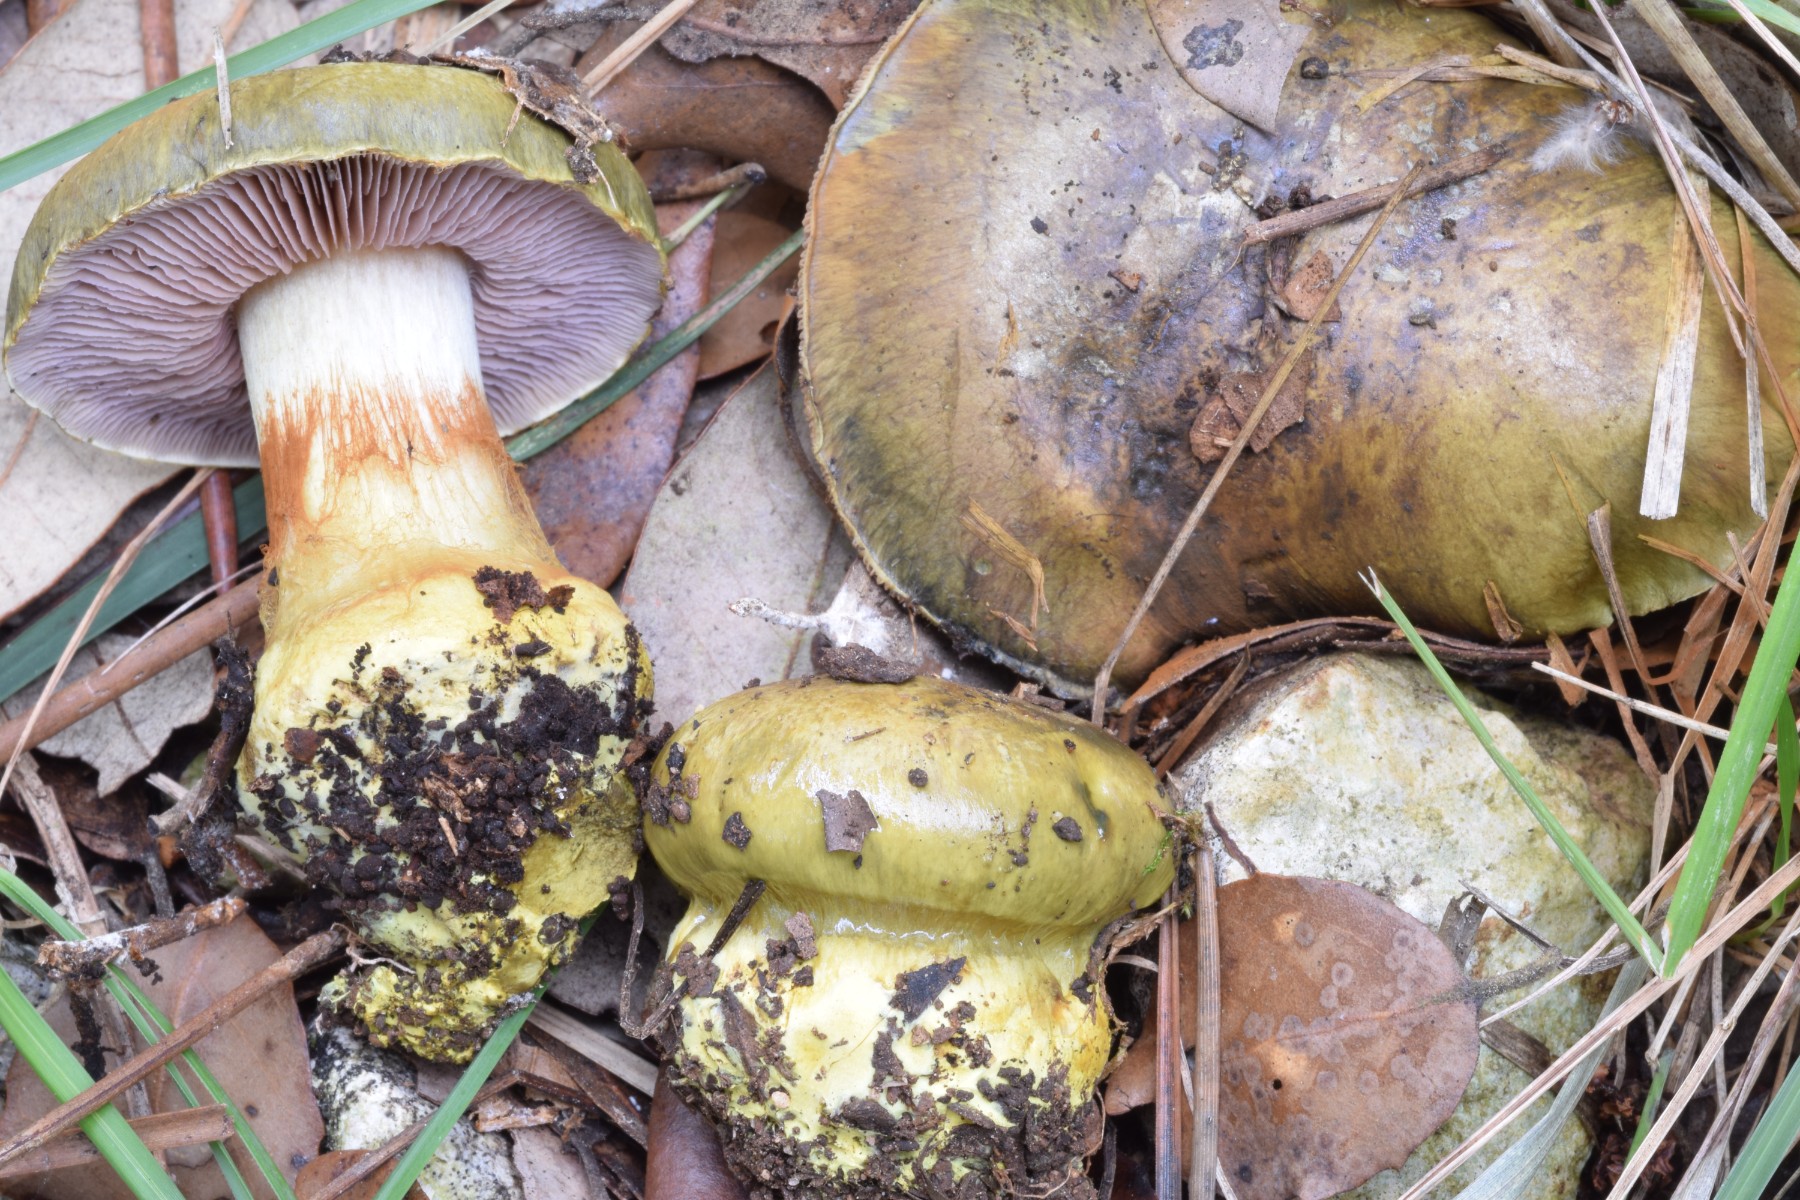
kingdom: Fungi
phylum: Basidiomycota
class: Agaricomycetes
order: Agaricales
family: Cortinariaceae
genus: Calonarius
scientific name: Calonarius ionochlorus
